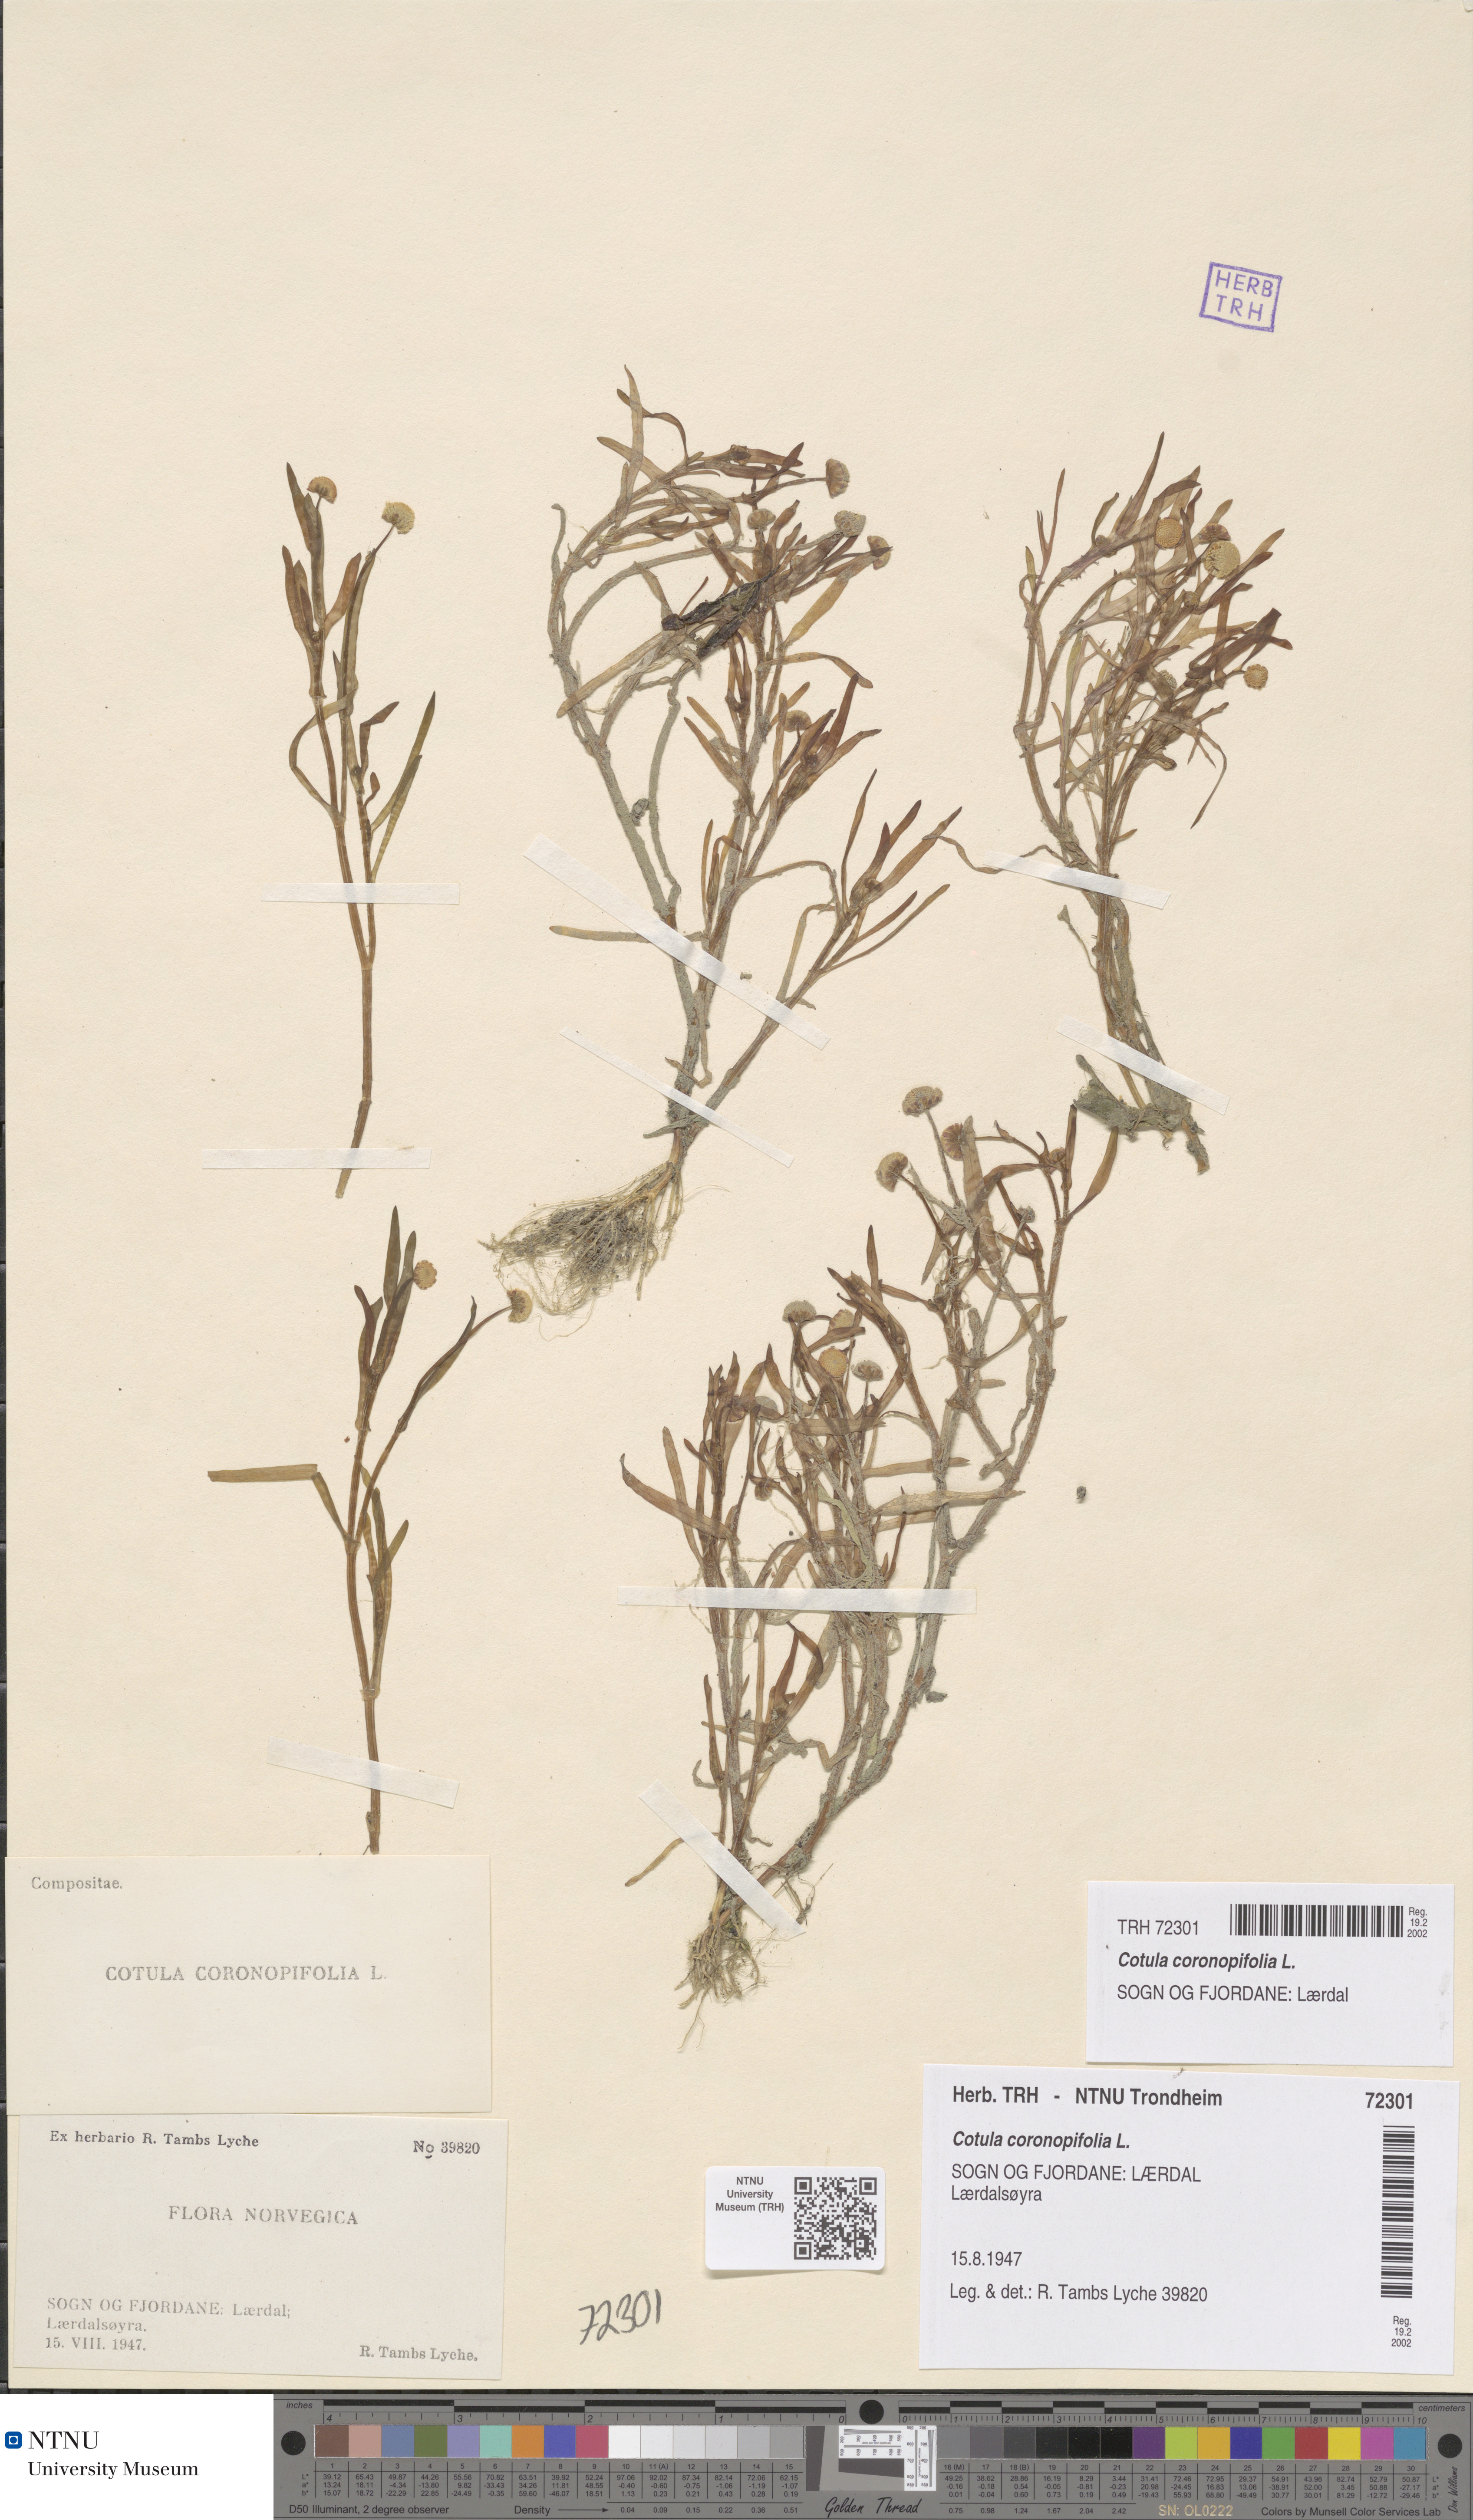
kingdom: Plantae
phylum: Tracheophyta
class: Magnoliopsida
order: Asterales
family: Asteraceae
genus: Cotula
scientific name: Cotula coronopifolia
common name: Buttonweed
